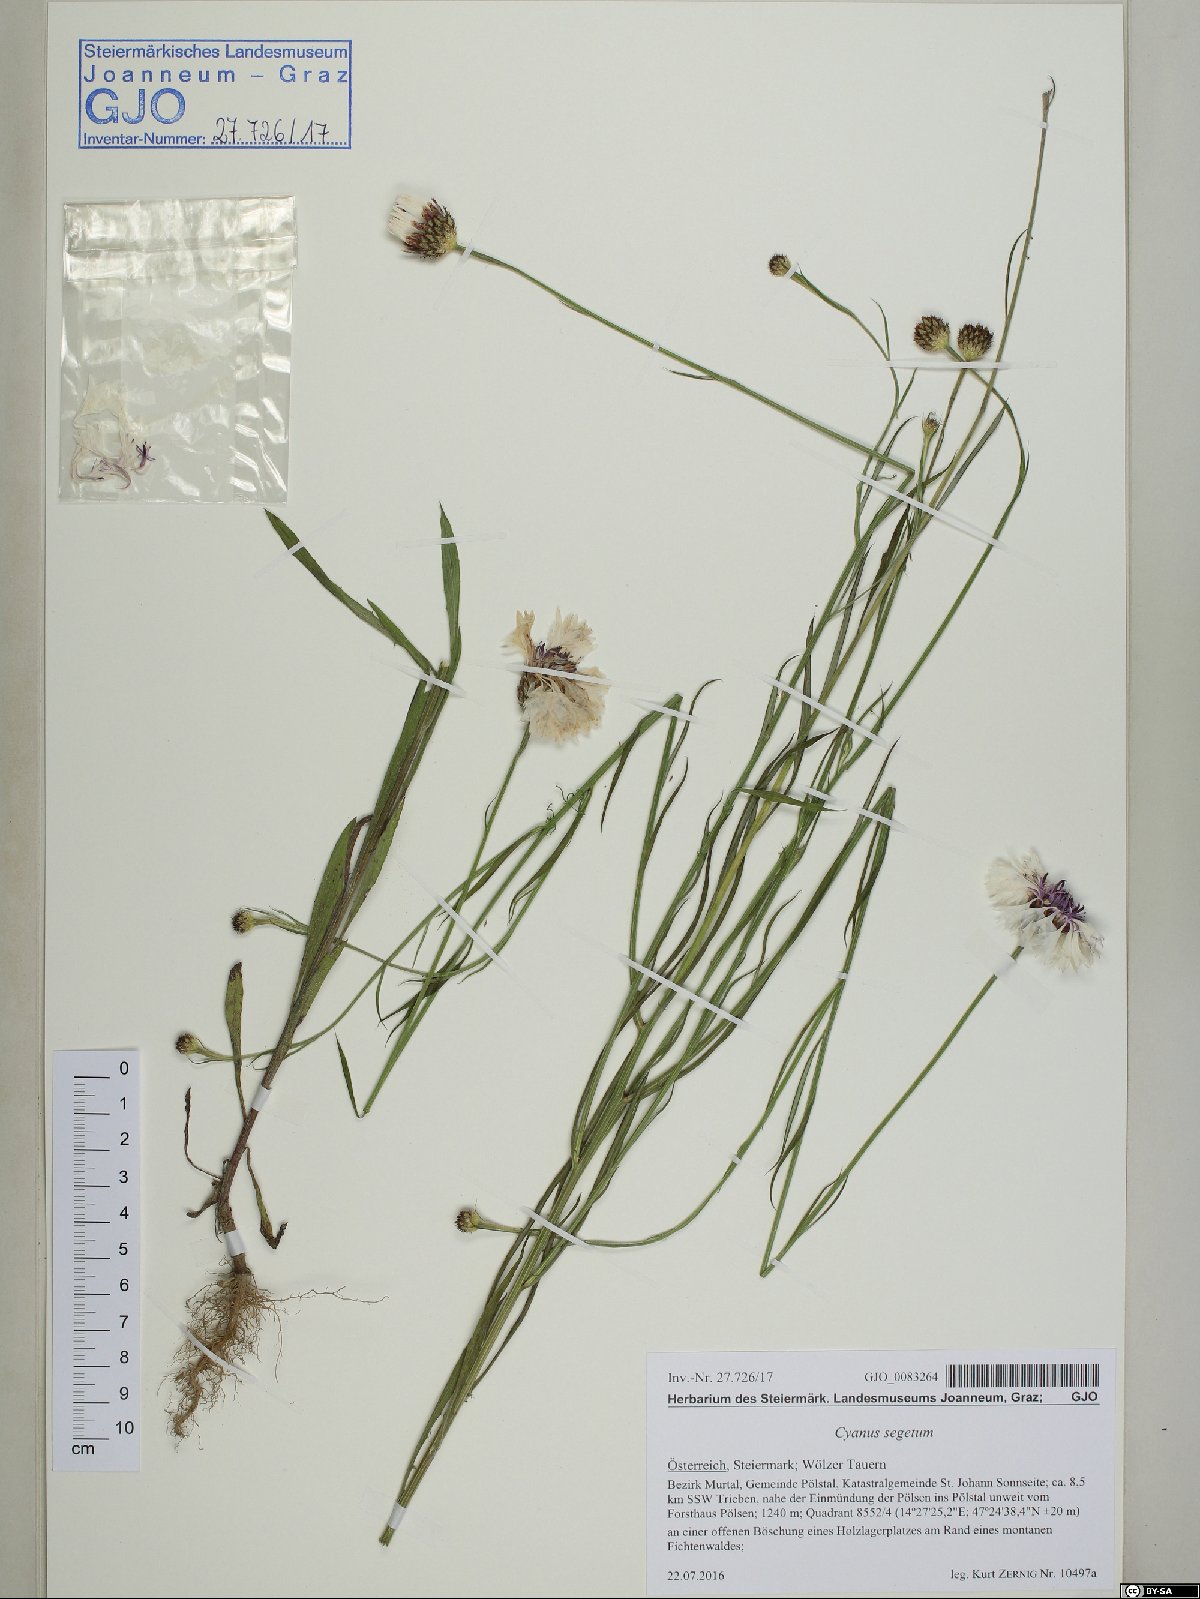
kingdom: Plantae
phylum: Tracheophyta
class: Magnoliopsida
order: Asterales
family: Asteraceae
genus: Centaurea
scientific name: Centaurea cyanus
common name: Cornflower
